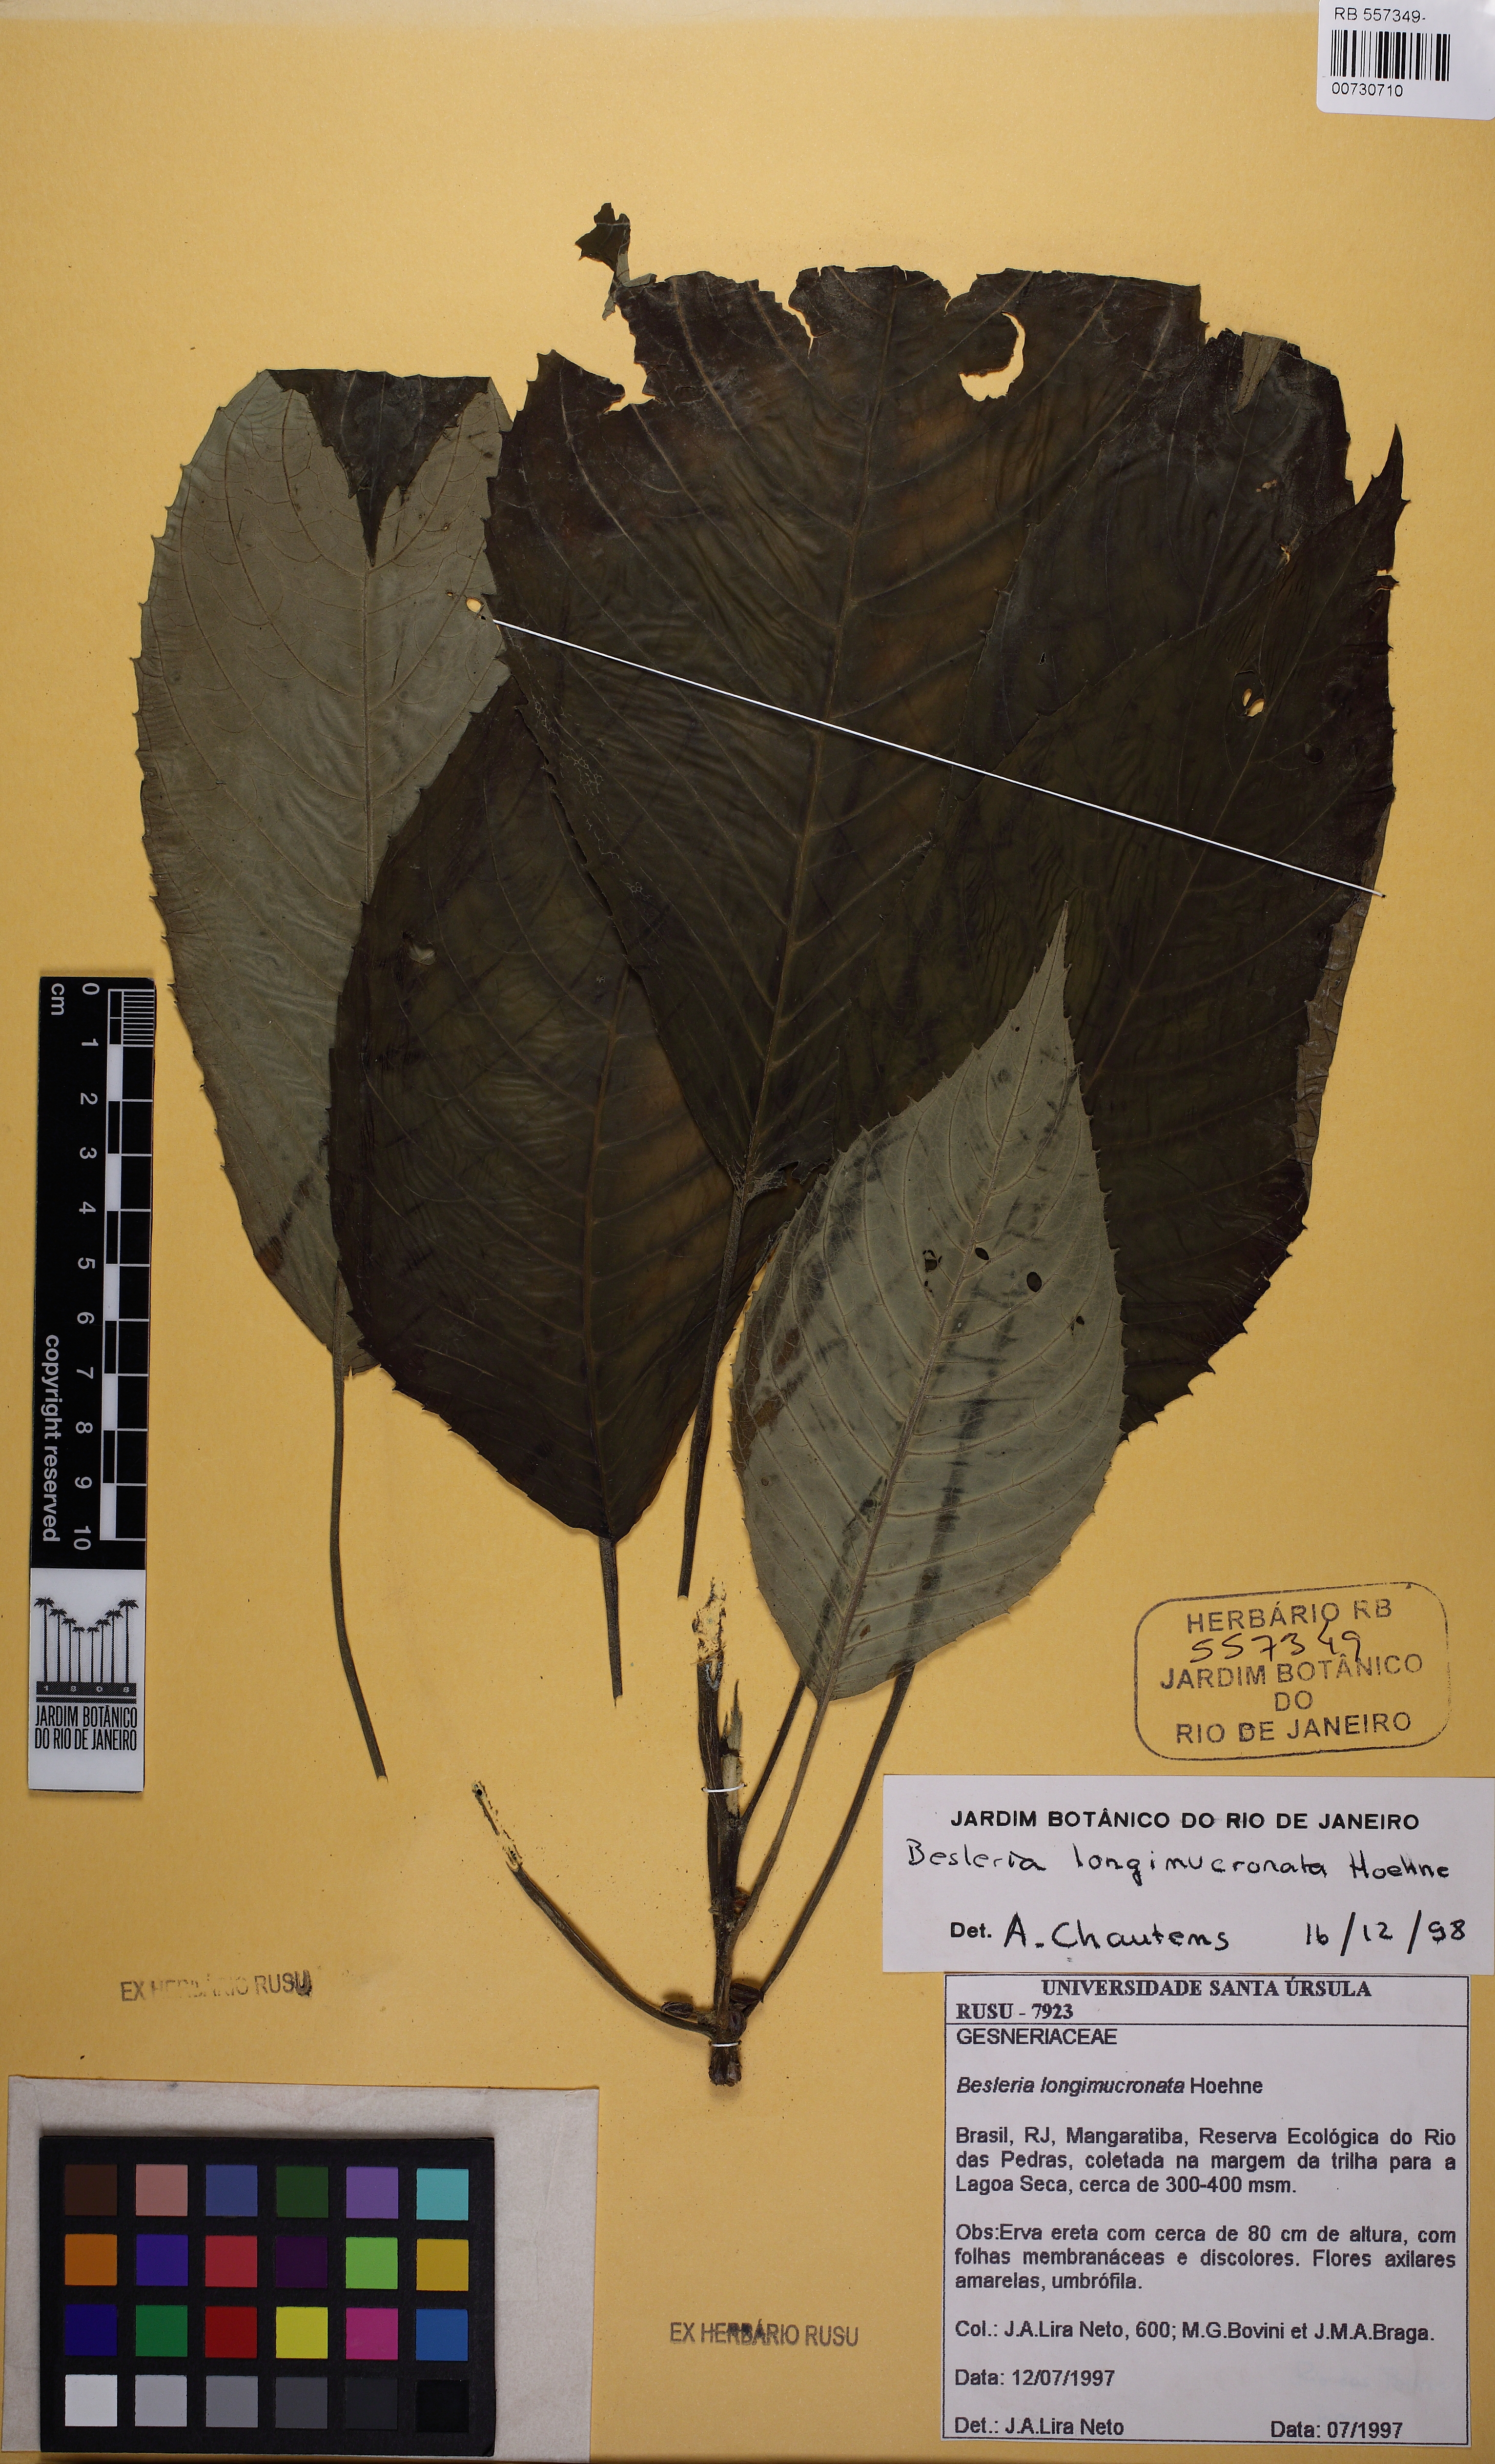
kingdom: Plantae
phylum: Tracheophyta
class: Magnoliopsida
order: Lamiales
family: Gesneriaceae
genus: Besleria
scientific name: Besleria longimucronata
